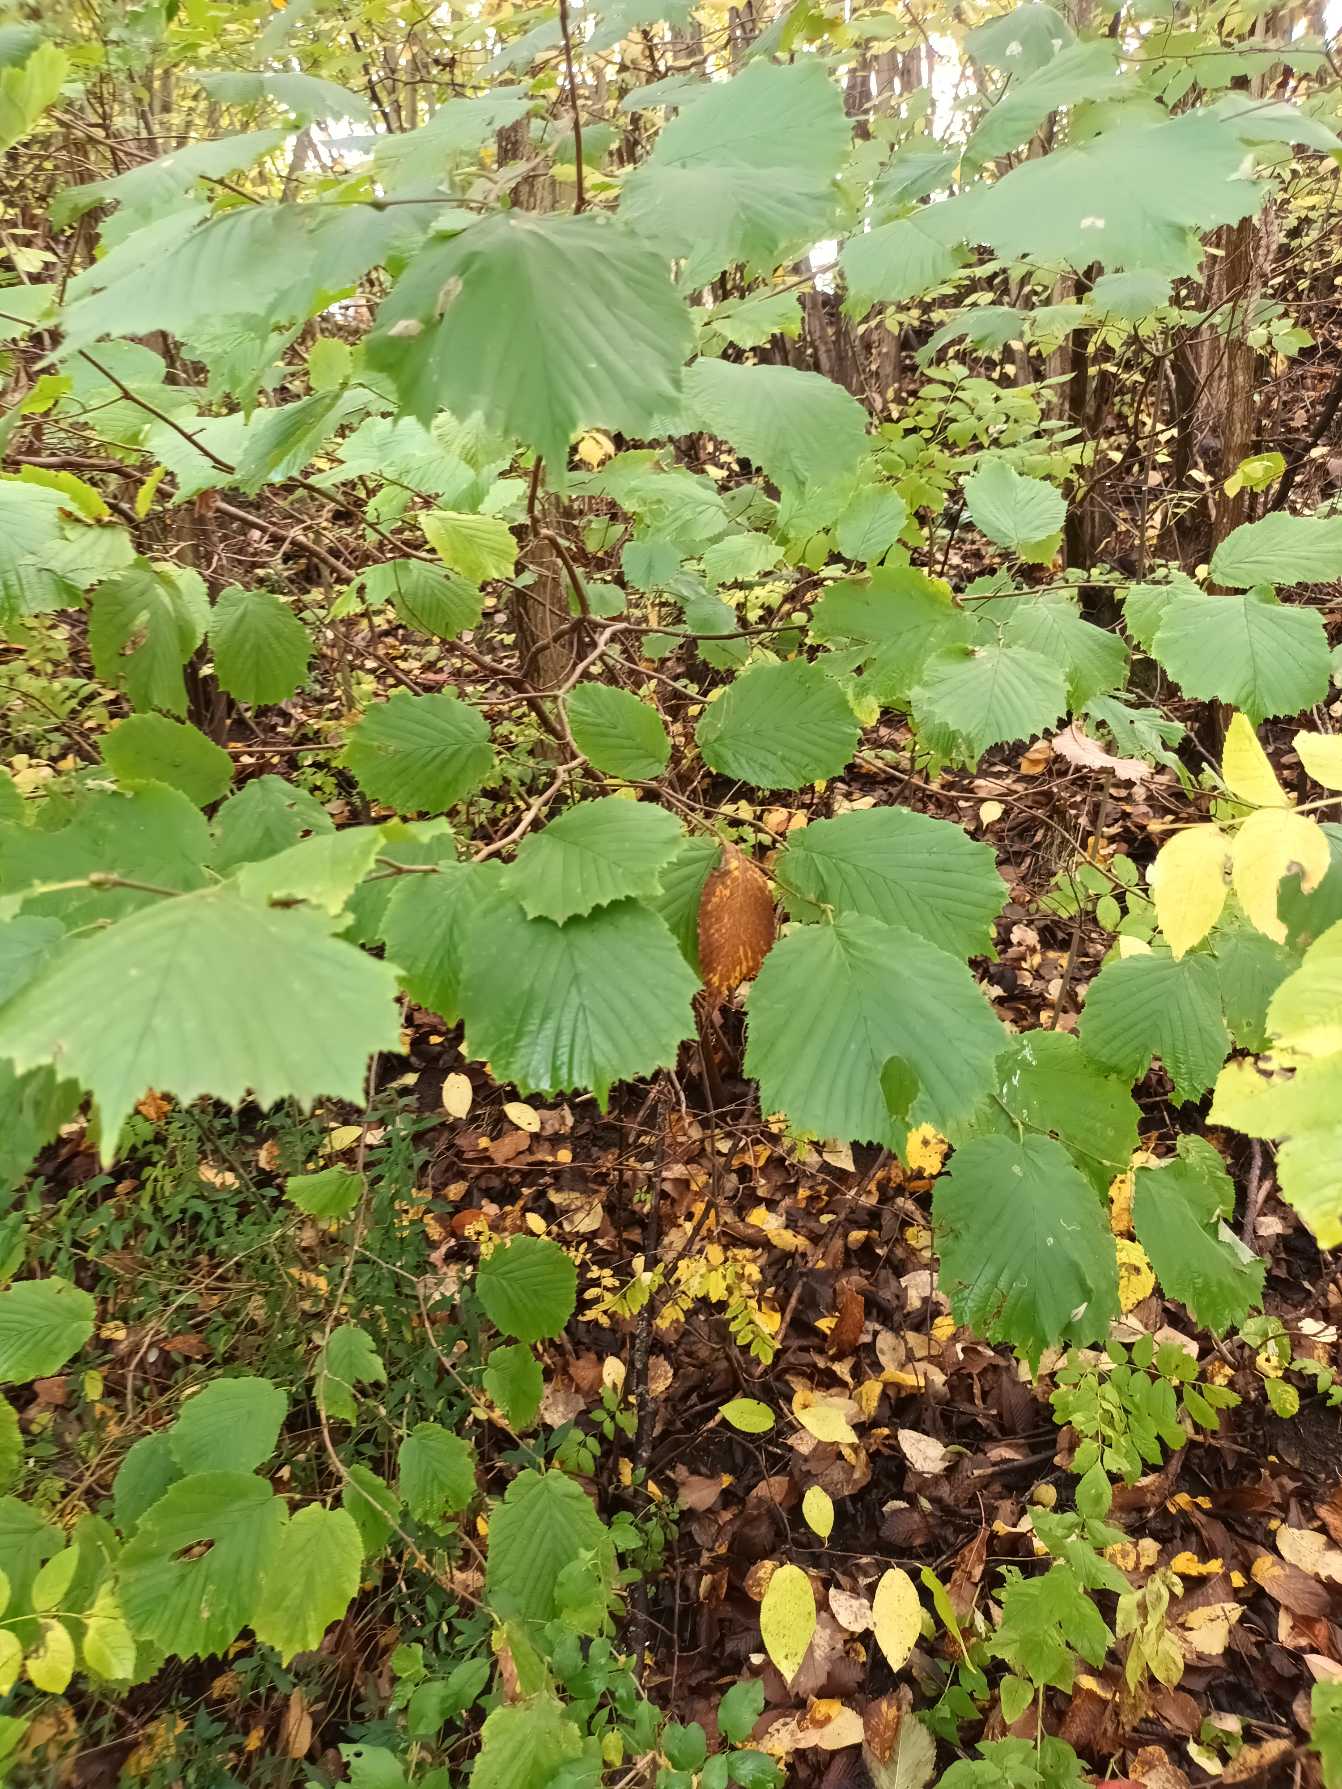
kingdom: Plantae
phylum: Tracheophyta
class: Magnoliopsida
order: Fagales
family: Betulaceae
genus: Corylus
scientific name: Corylus avellana
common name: Hassel
